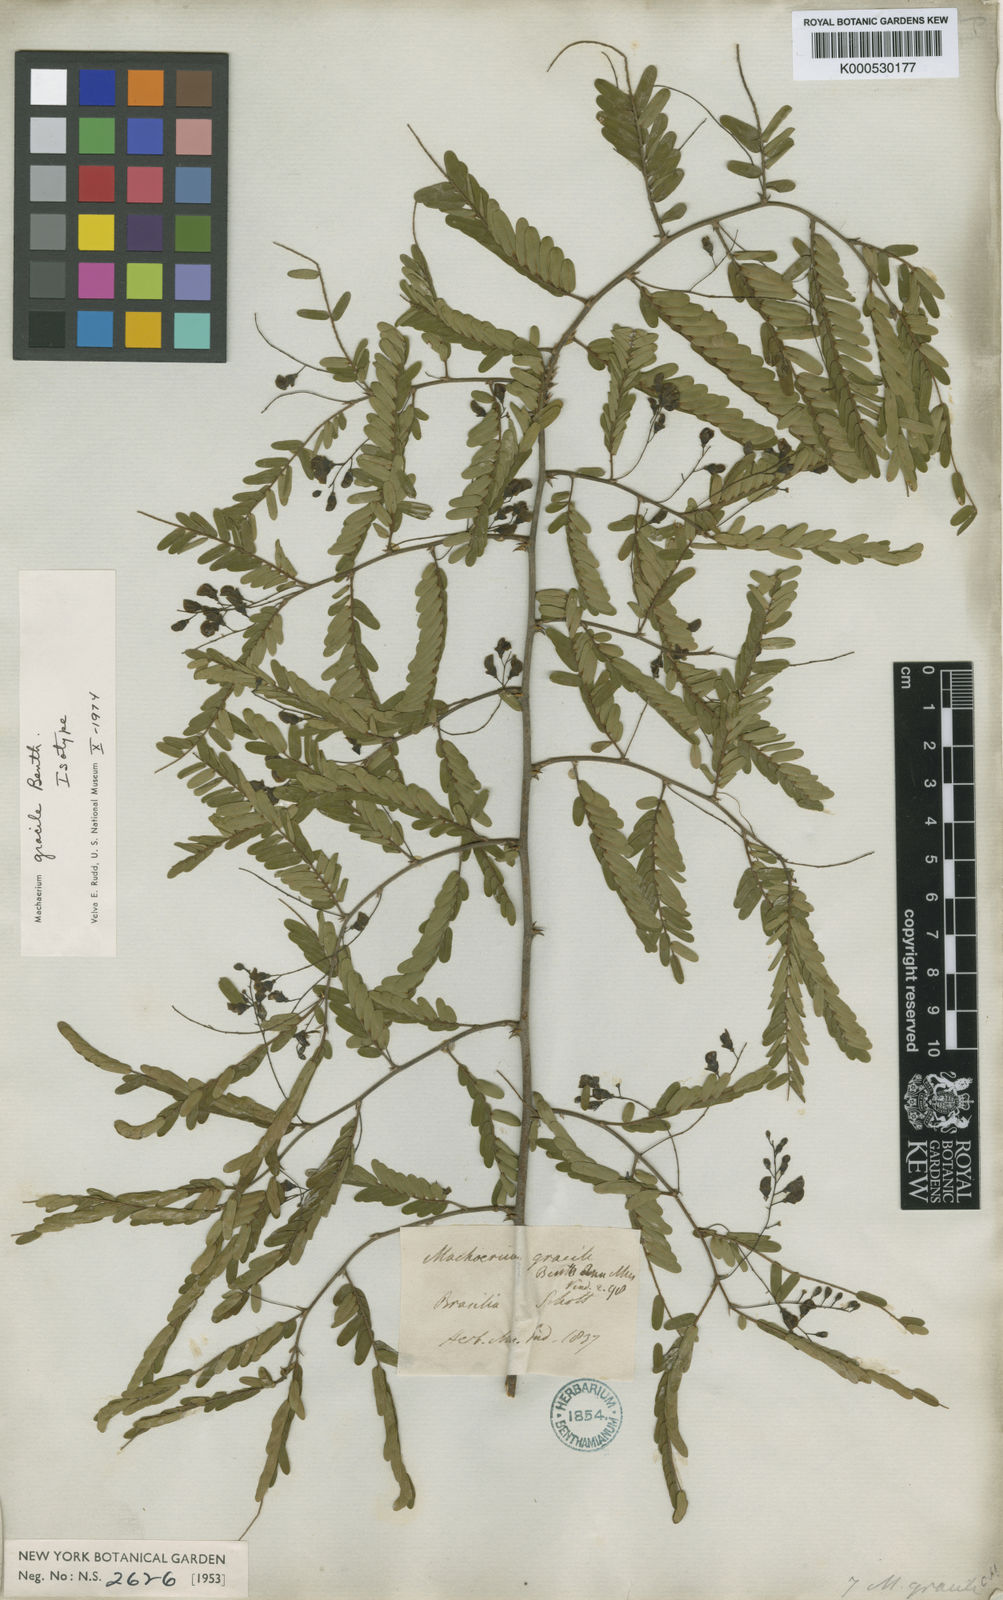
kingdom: Plantae
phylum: Tracheophyta
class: Magnoliopsida
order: Fabales
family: Fabaceae
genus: Machaerium
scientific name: Machaerium gracile
